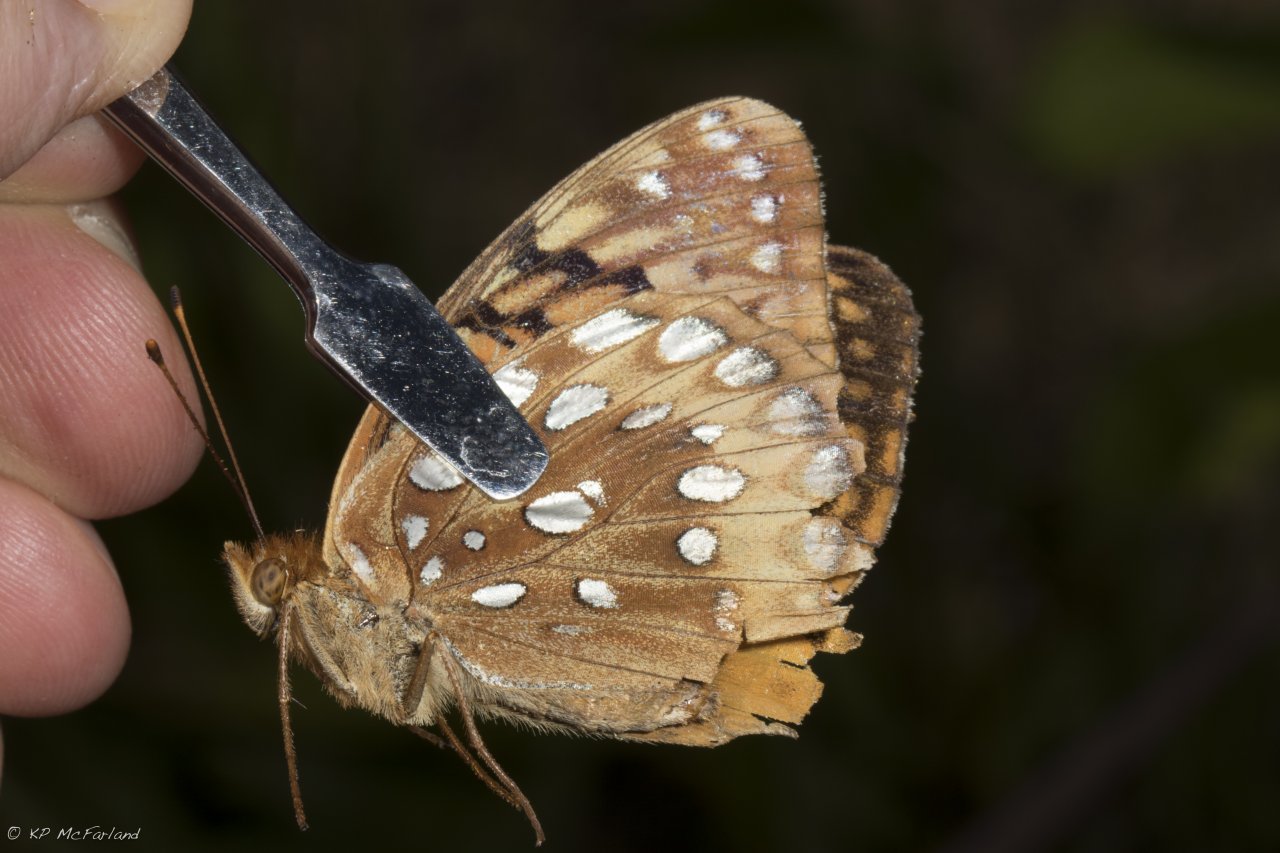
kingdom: Animalia
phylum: Arthropoda
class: Insecta
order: Lepidoptera
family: Nymphalidae
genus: Speyeria
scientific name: Speyeria cybele
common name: Great Spangled Fritillary
